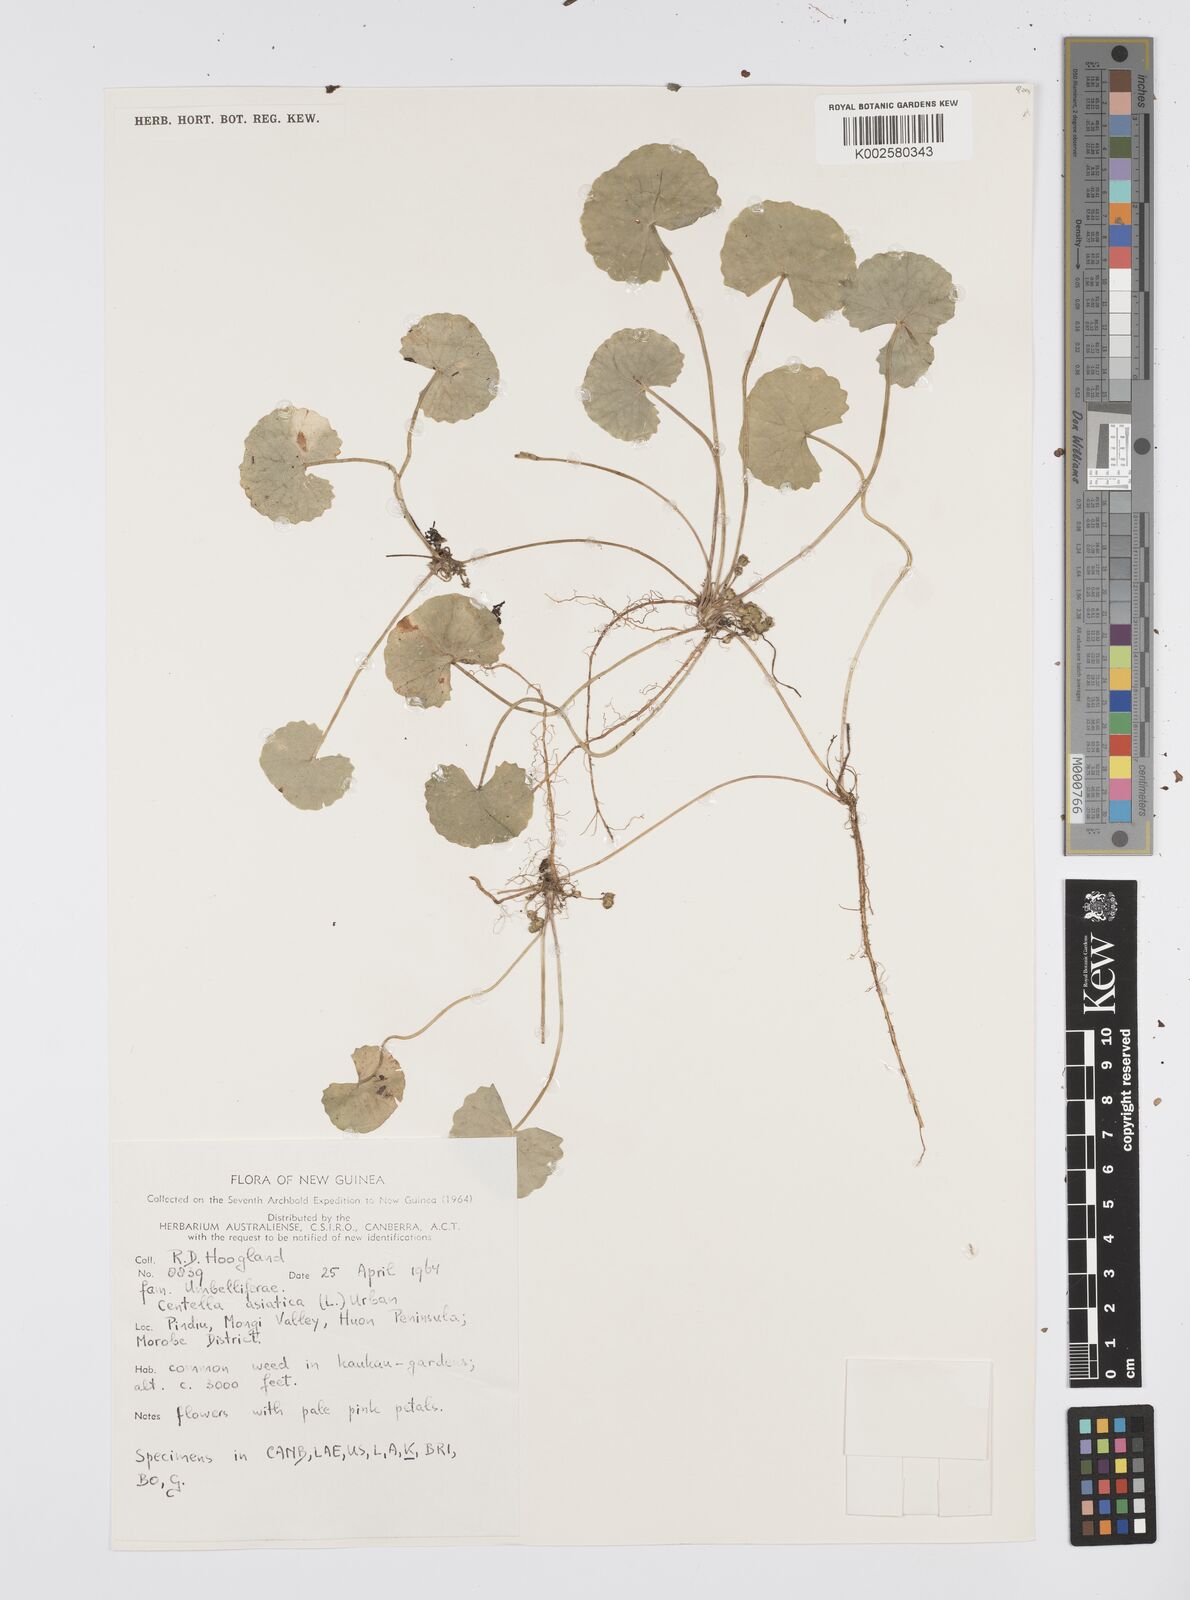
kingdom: Plantae
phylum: Tracheophyta
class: Magnoliopsida
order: Apiales
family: Apiaceae
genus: Centella
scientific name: Centella asiatica
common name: Spadeleaf
